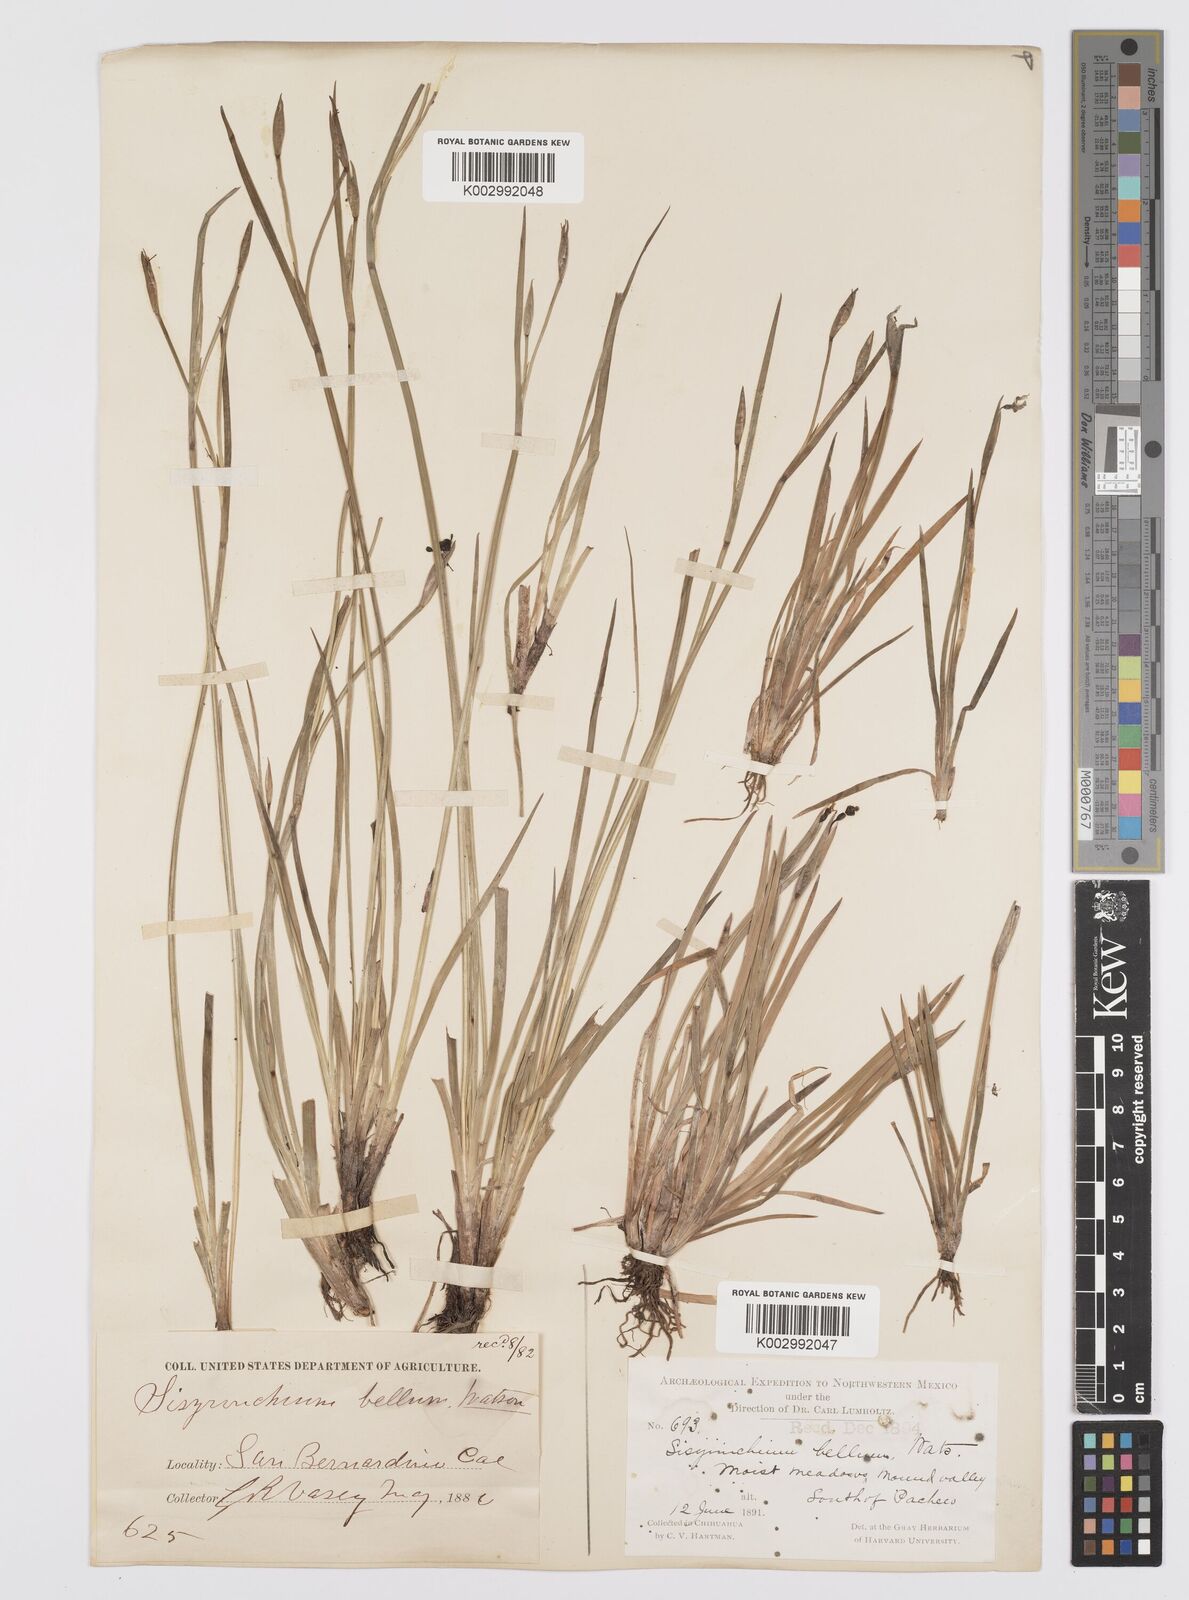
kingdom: Plantae
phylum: Tracheophyta
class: Liliopsida
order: Asparagales
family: Iridaceae
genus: Sisyrinchium
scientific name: Sisyrinchium
